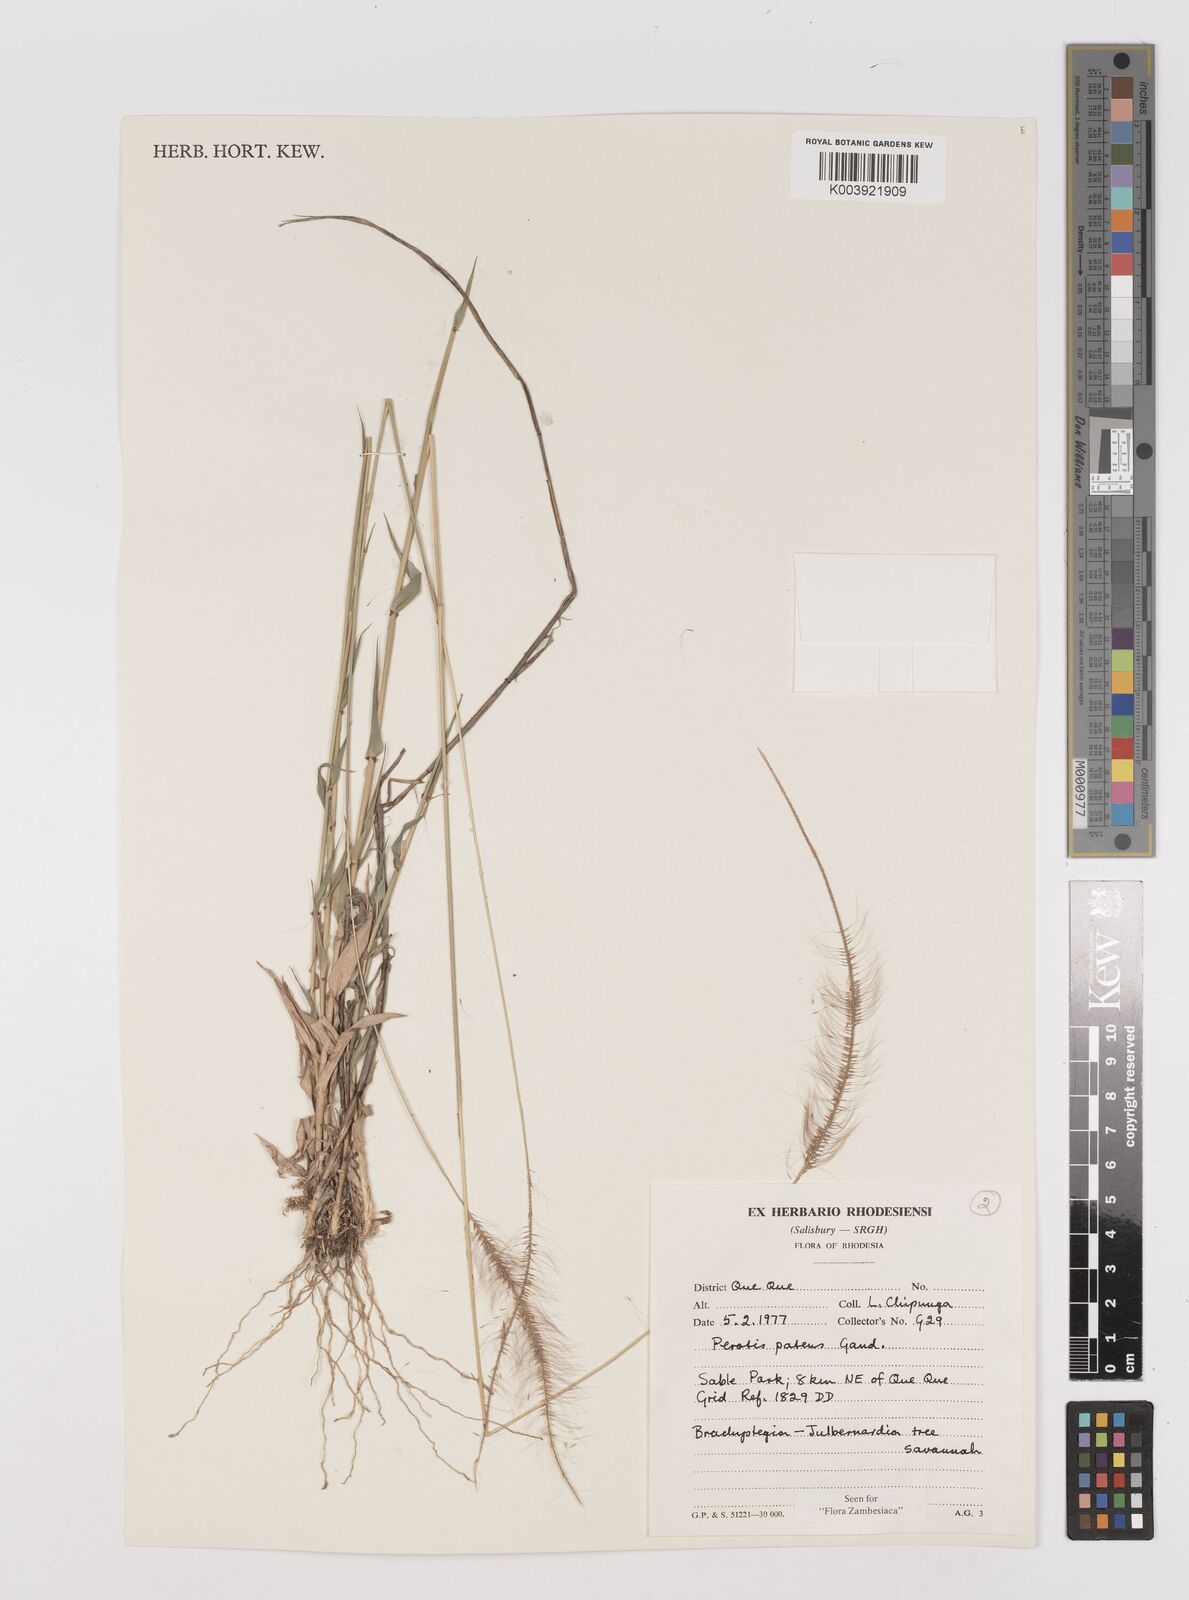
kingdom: Plantae
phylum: Tracheophyta
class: Liliopsida
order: Poales
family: Poaceae
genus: Perotis
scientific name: Perotis patens
